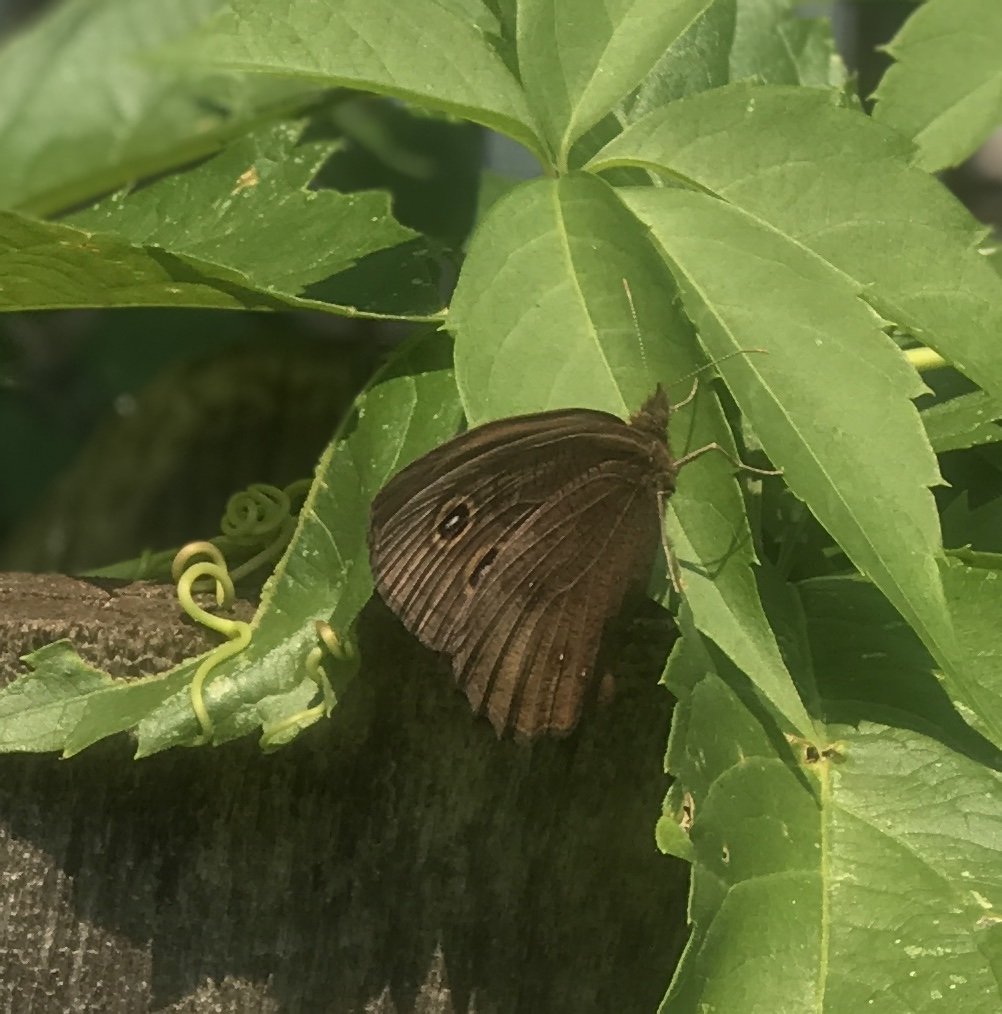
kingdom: Animalia
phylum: Arthropoda
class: Insecta
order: Lepidoptera
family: Nymphalidae
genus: Cercyonis
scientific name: Cercyonis pegala
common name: Common Wood-Nymph
